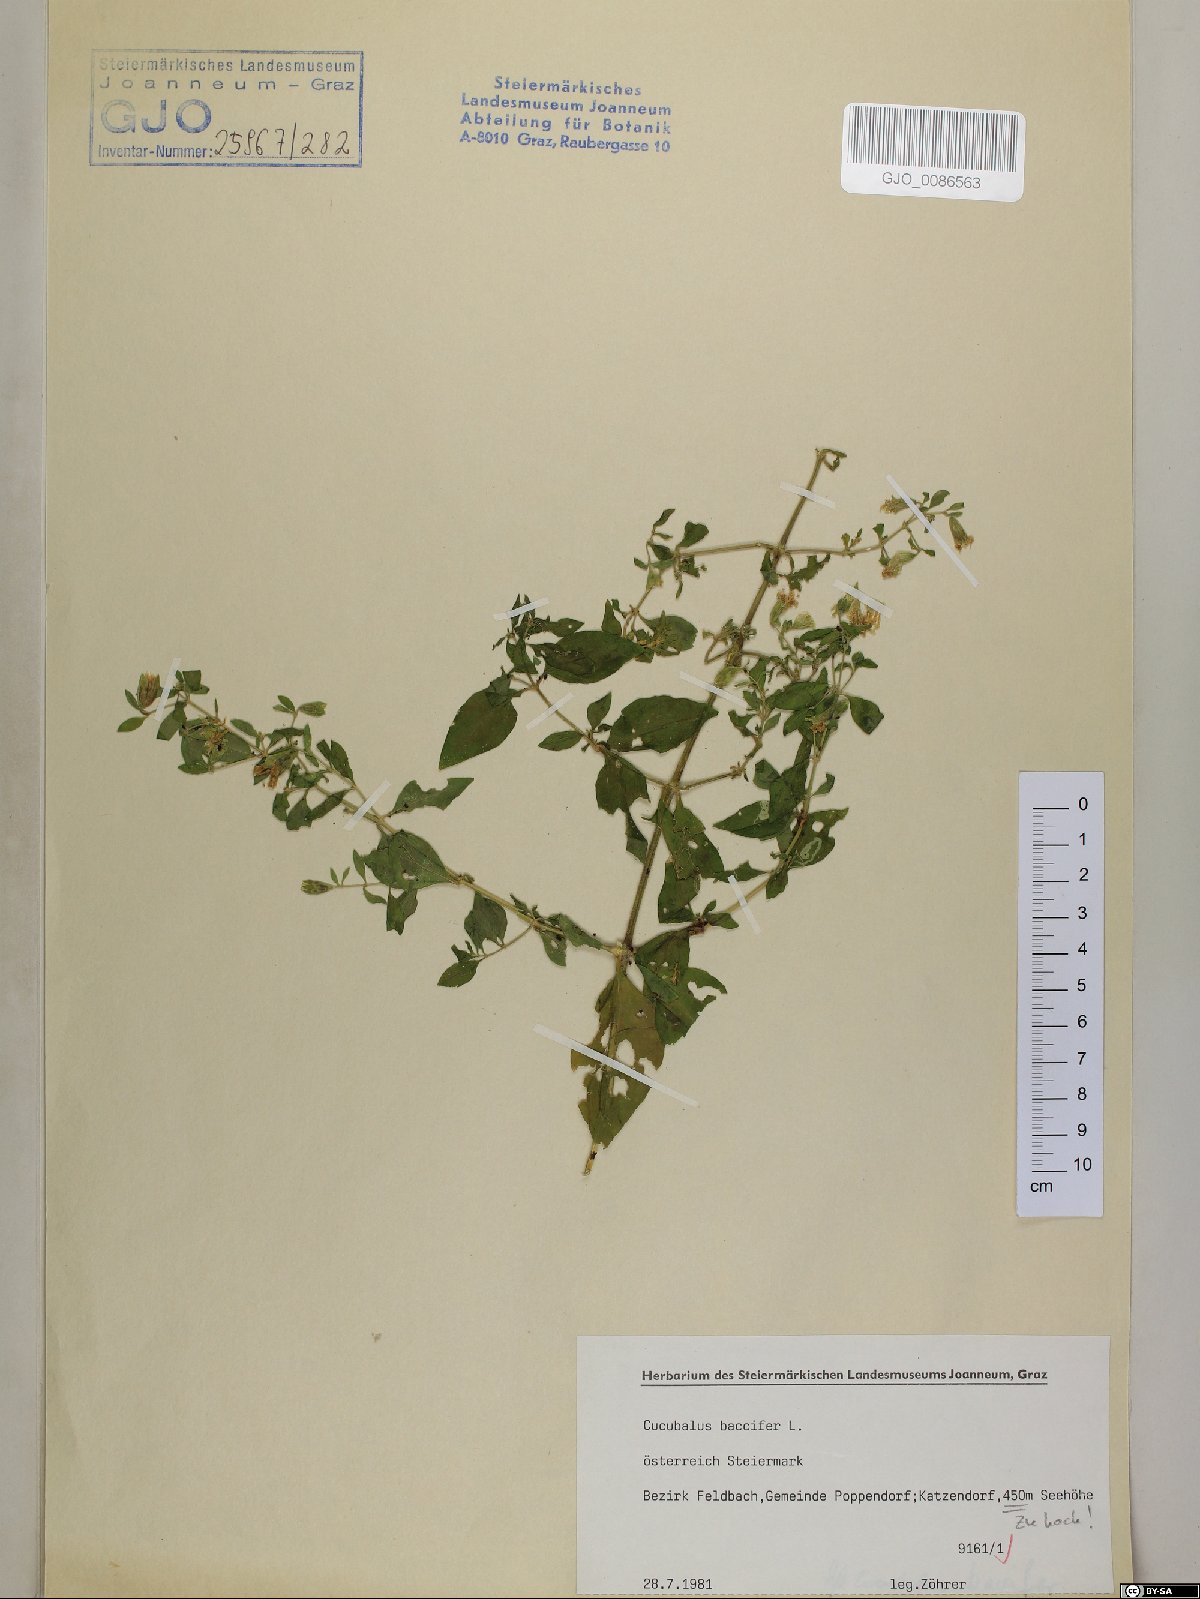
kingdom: Plantae
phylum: Tracheophyta
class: Magnoliopsida
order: Caryophyllales
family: Caryophyllaceae
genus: Silene
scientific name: Silene baccifera
